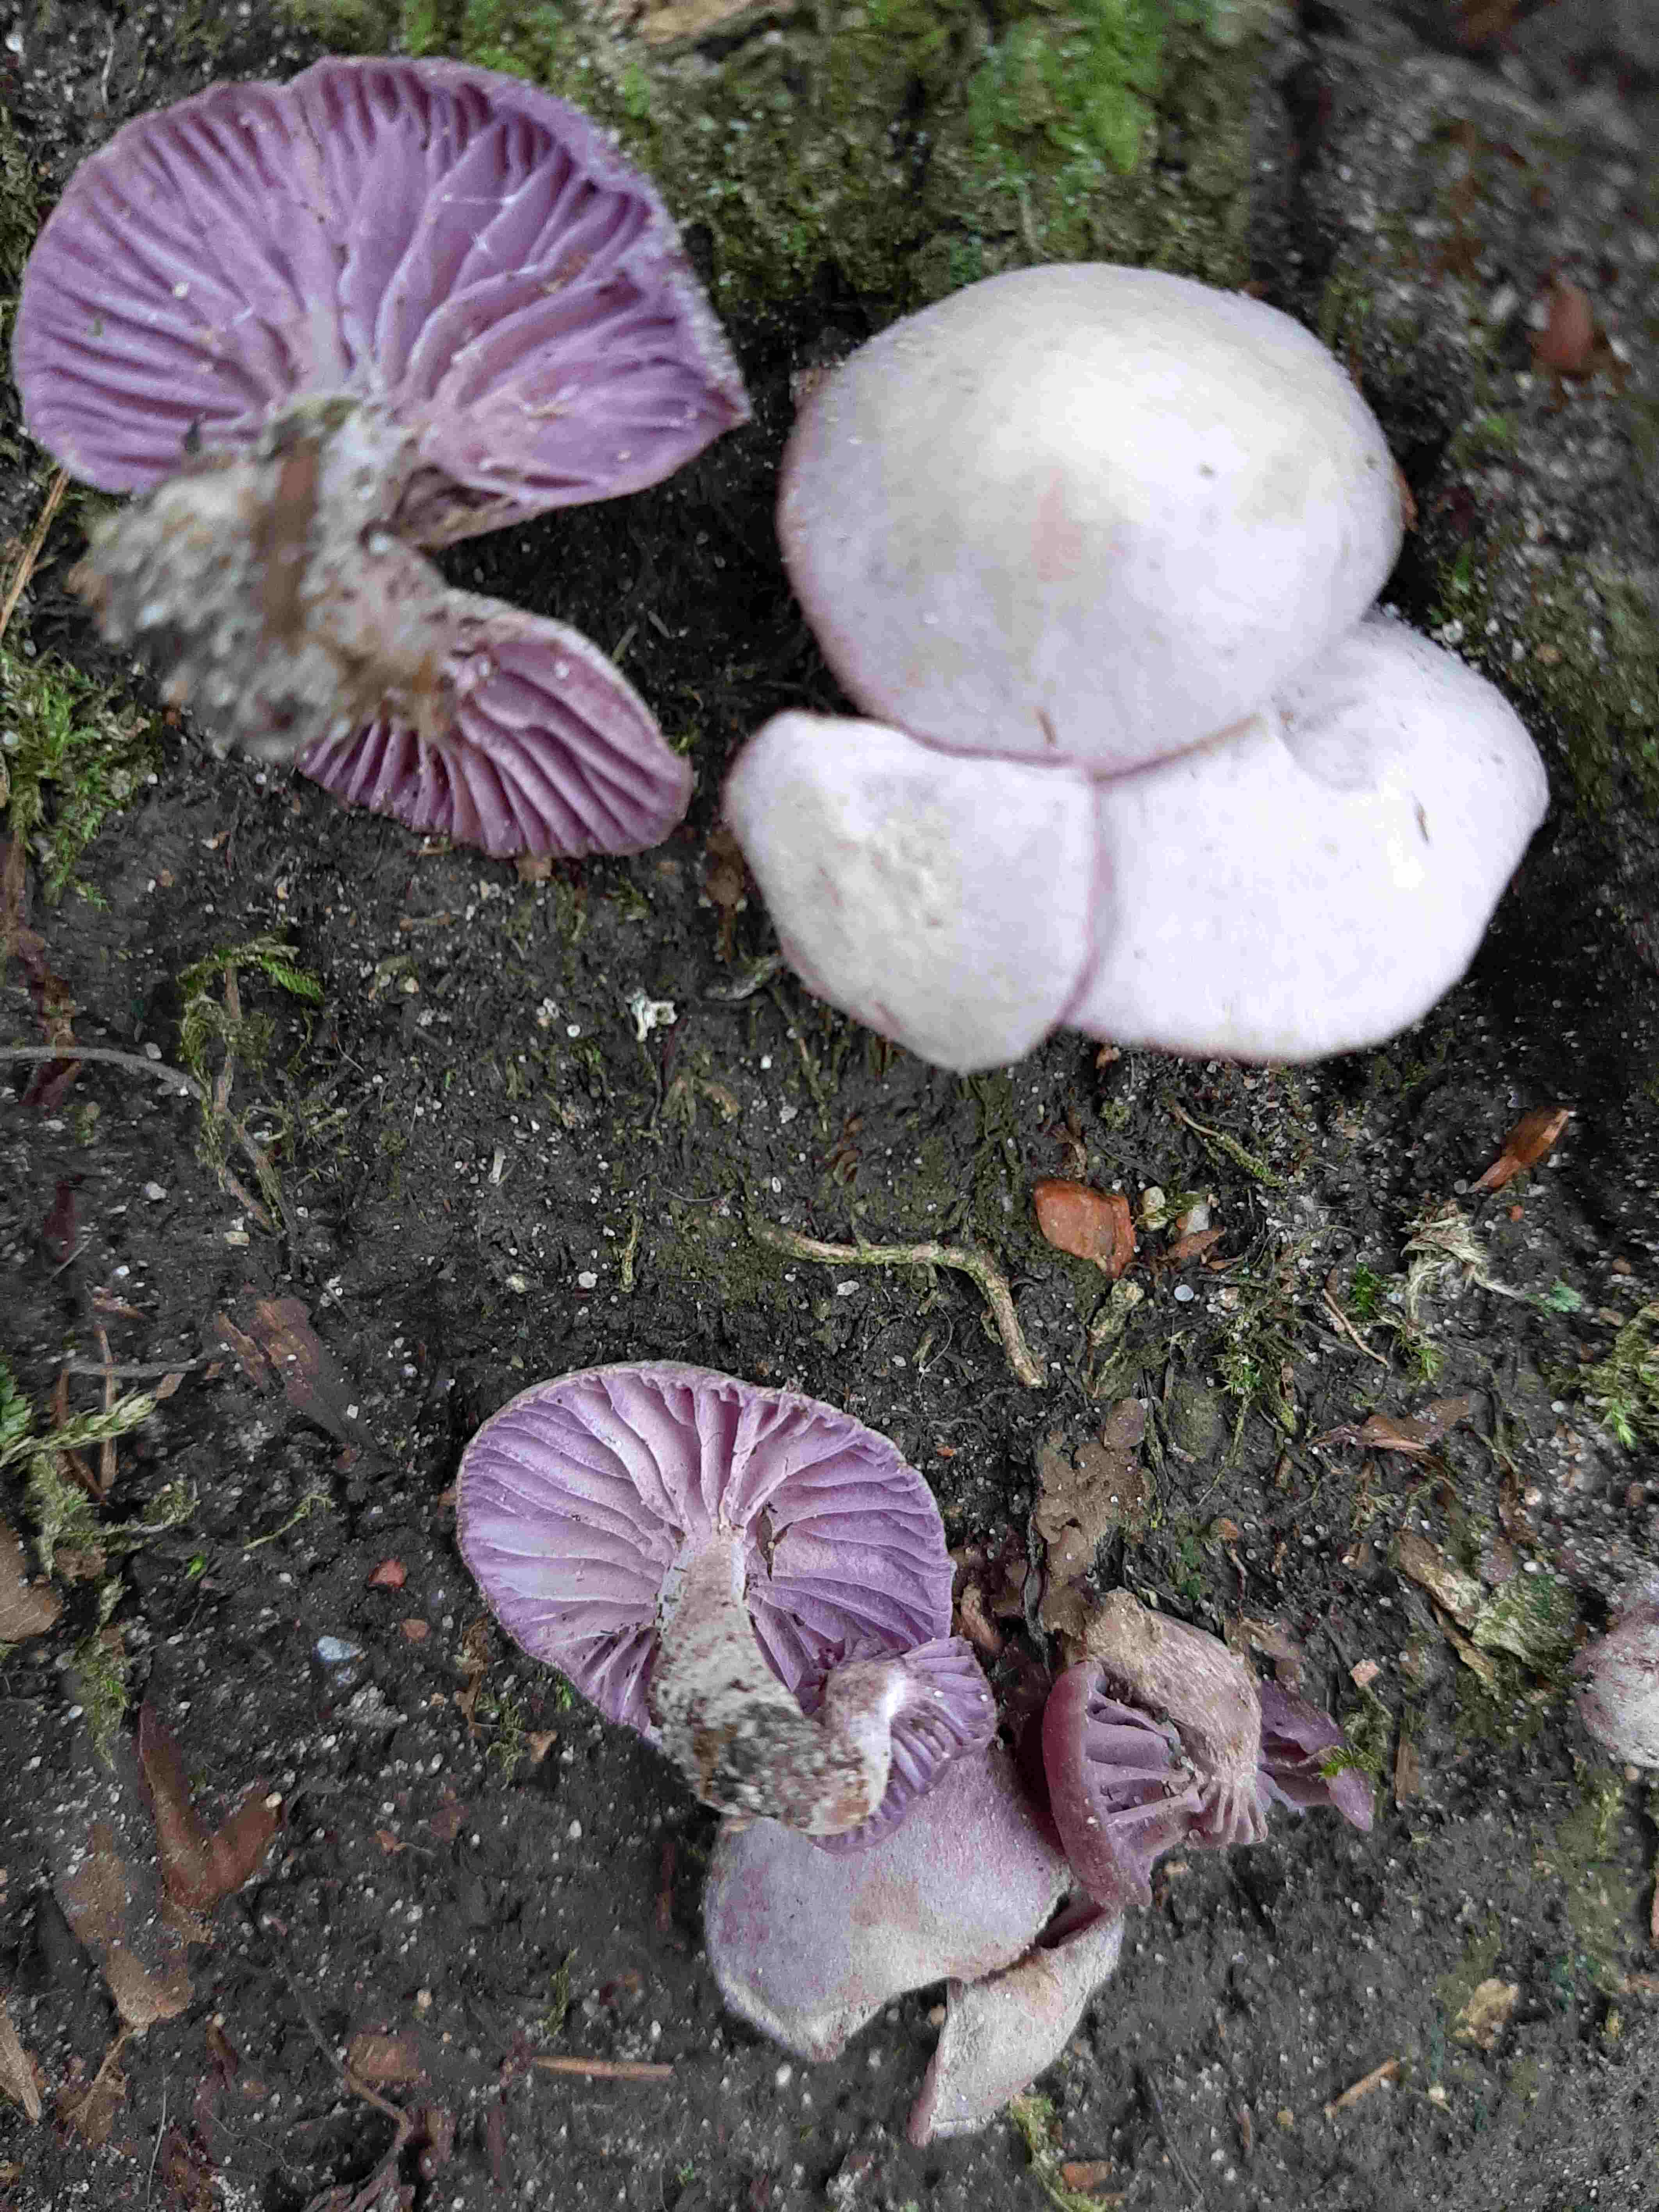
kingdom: Fungi
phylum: Basidiomycota
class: Agaricomycetes
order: Agaricales
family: Hydnangiaceae
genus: Laccaria
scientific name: Laccaria amethystina
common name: violet ametysthat
